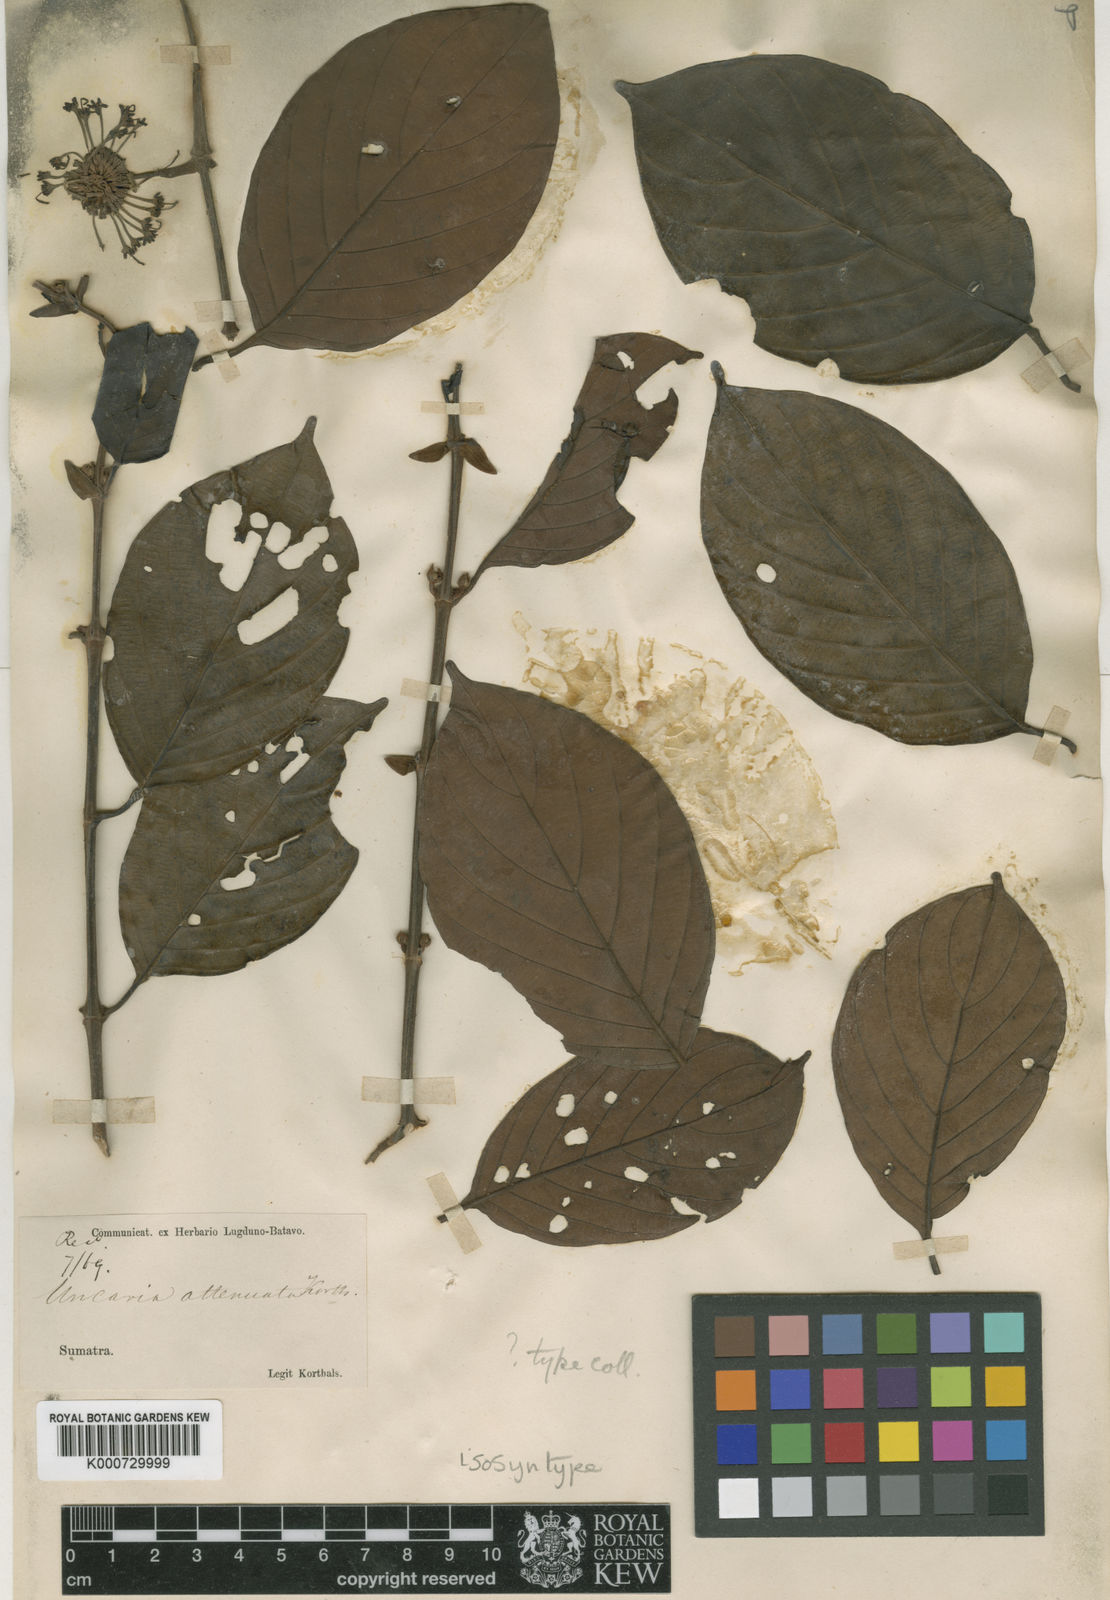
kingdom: Plantae
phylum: Tracheophyta
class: Magnoliopsida
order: Gentianales
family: Rubiaceae
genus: Uncaria
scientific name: Uncaria attenuata
